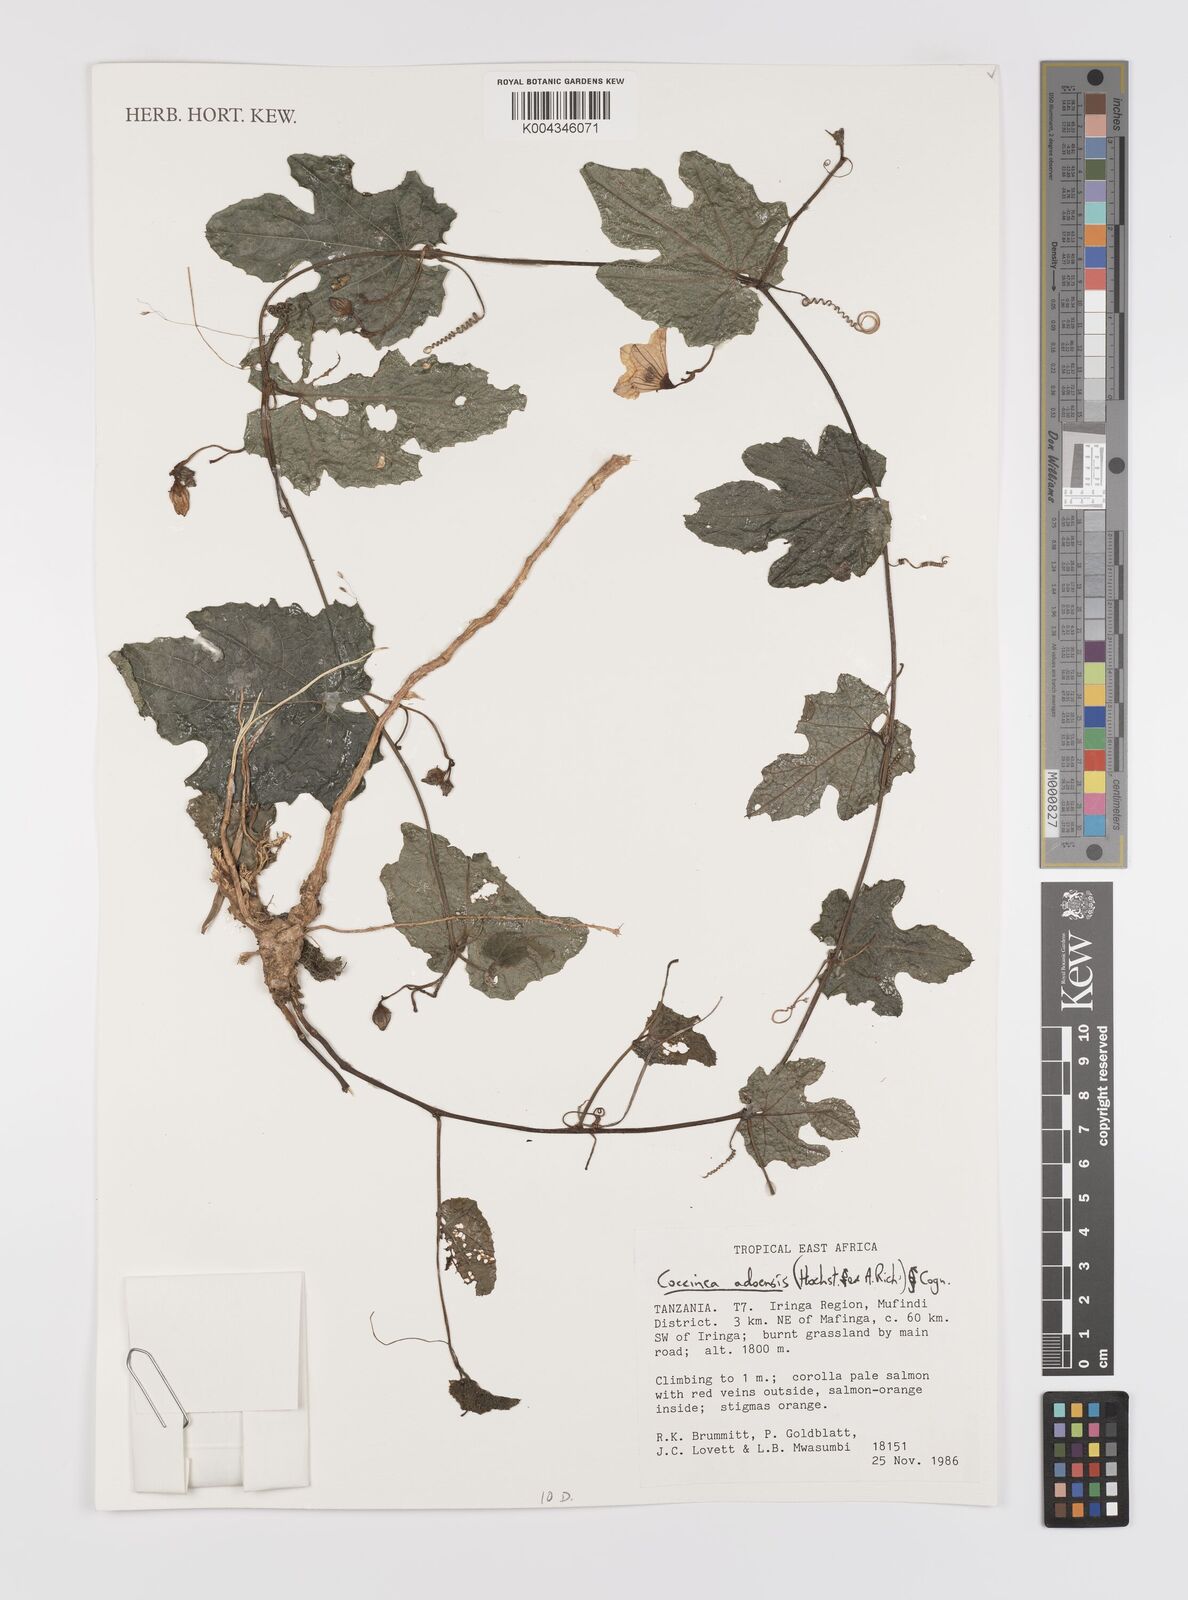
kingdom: Plantae
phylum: Tracheophyta
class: Magnoliopsida
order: Cucurbitales
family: Cucurbitaceae
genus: Coccinia
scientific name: Coccinia adoensis
